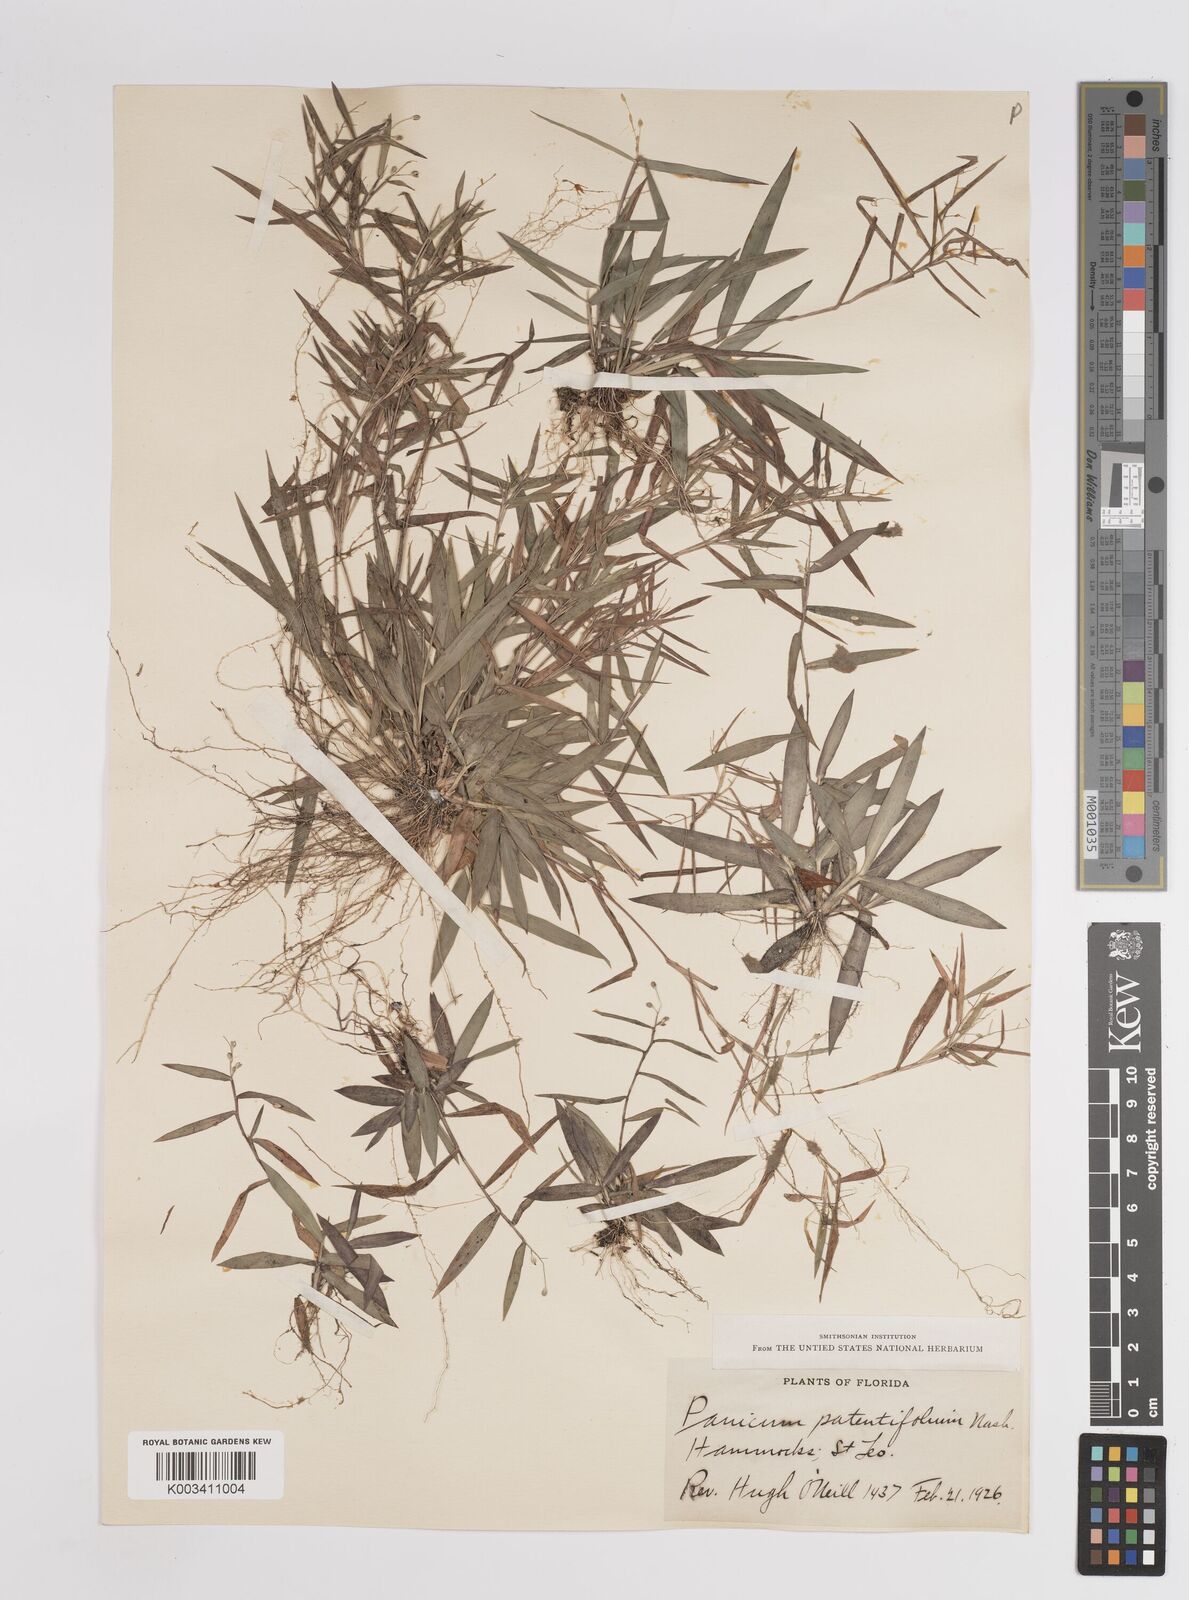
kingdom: Plantae
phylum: Tracheophyta
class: Liliopsida
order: Poales
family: Poaceae
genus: Dichanthelium
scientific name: Dichanthelium patentifolium
